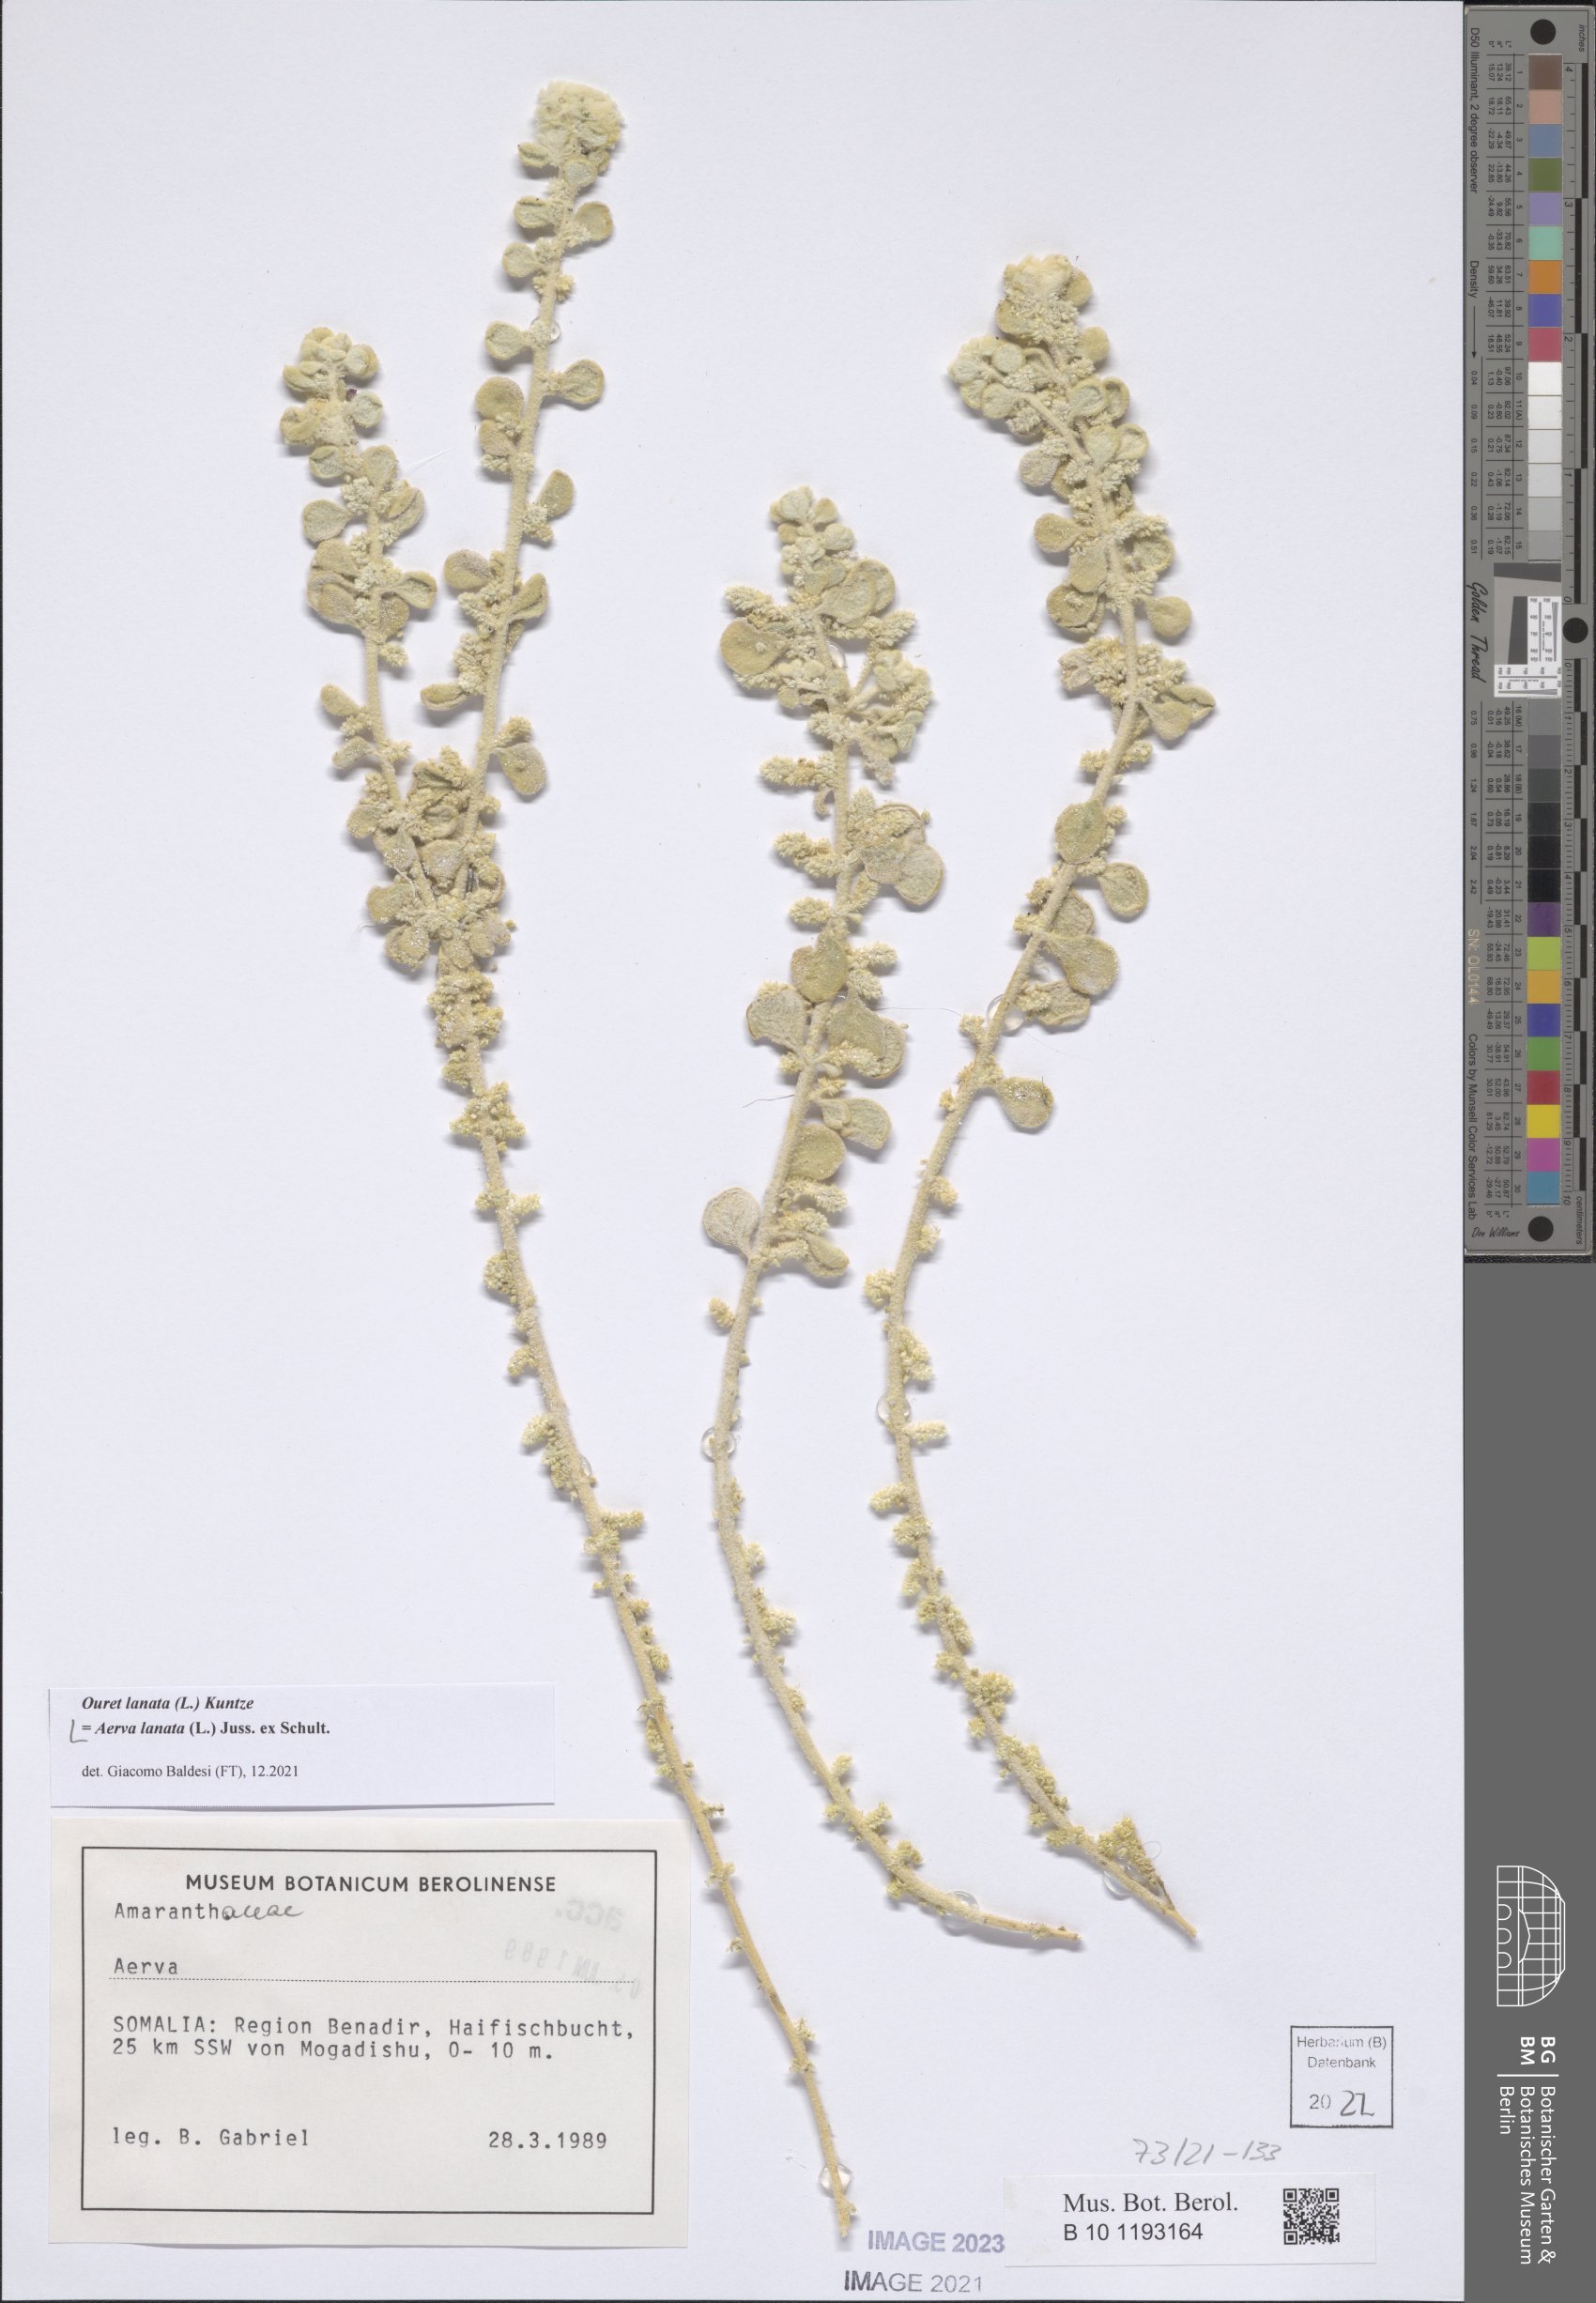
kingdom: Plantae
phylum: Tracheophyta
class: Magnoliopsida
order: Caryophyllales
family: Amaranthaceae
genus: Ouret
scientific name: Ouret lanata
